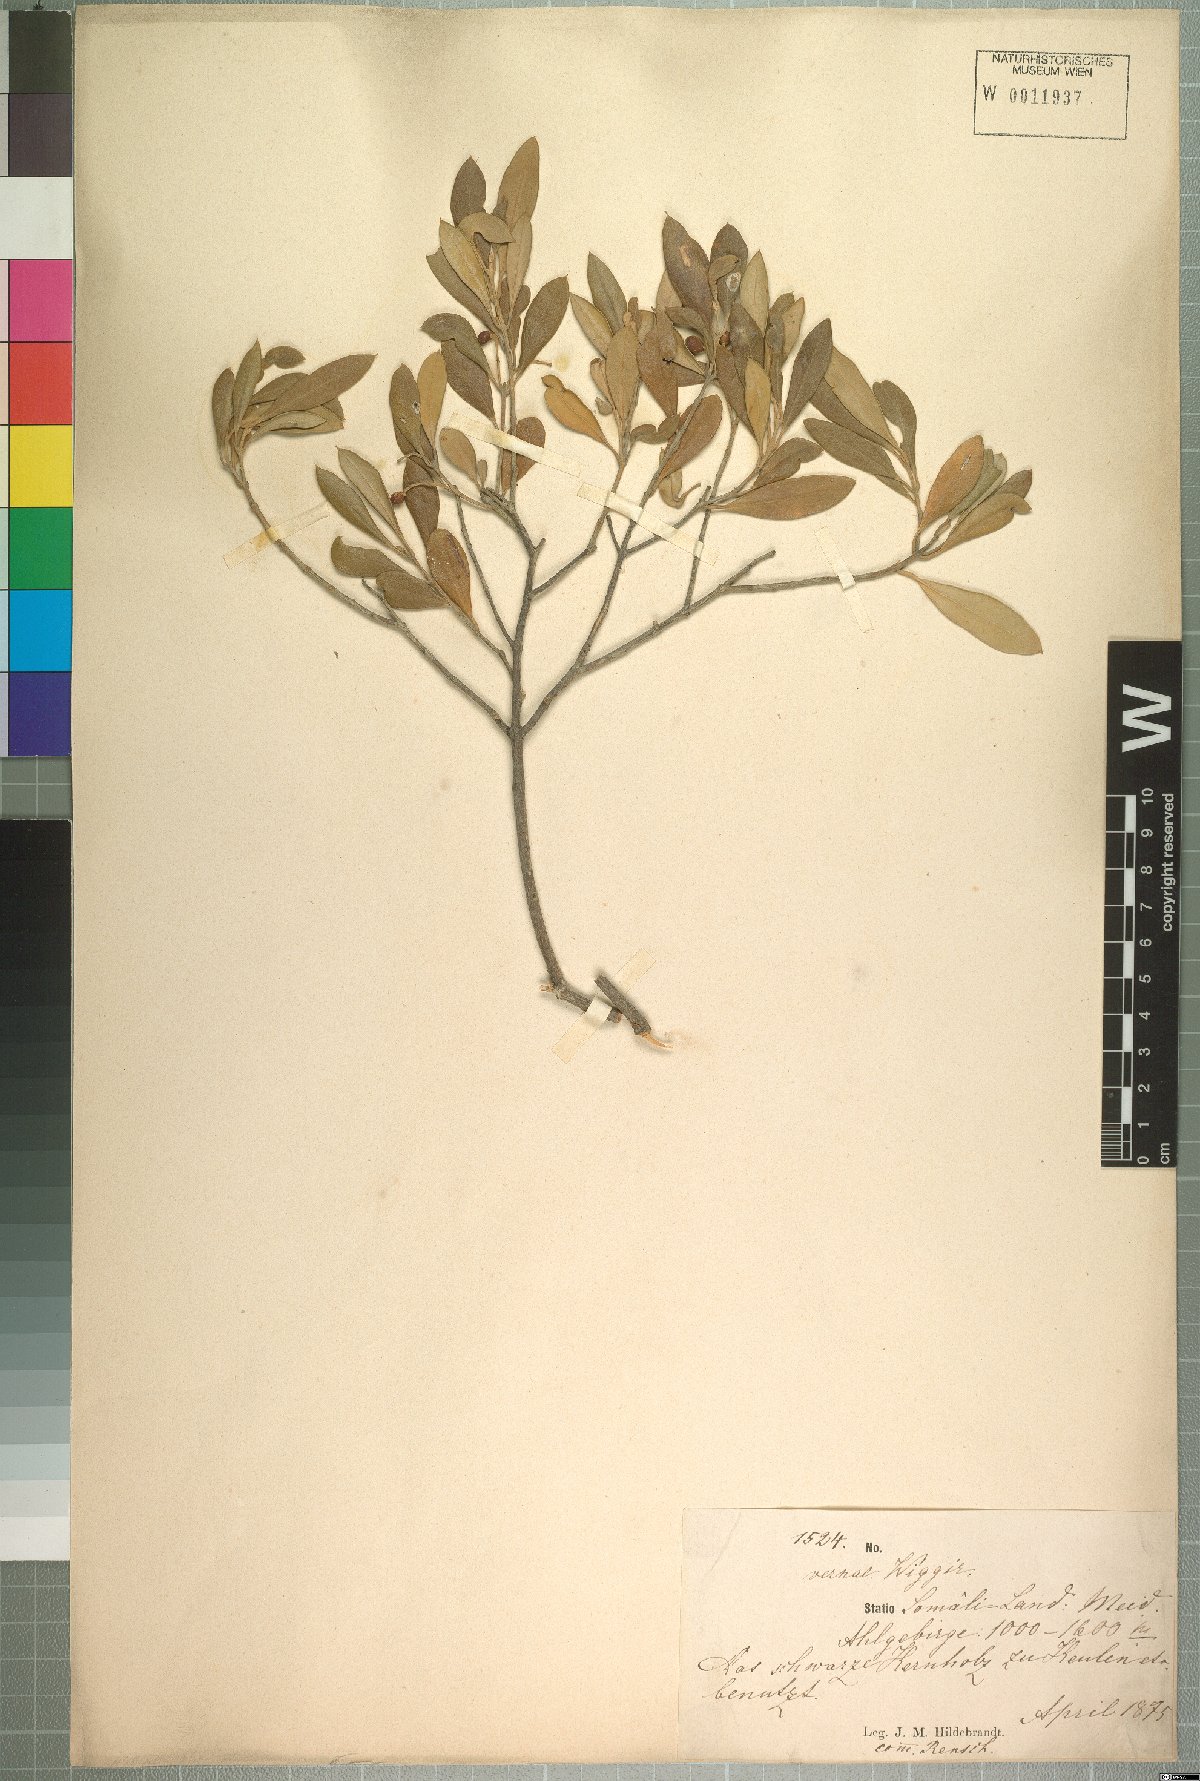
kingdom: Plantae
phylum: Tracheophyta
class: Magnoliopsida
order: Lamiales
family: Oleaceae
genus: Olea
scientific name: Olea europaea
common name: Olive
